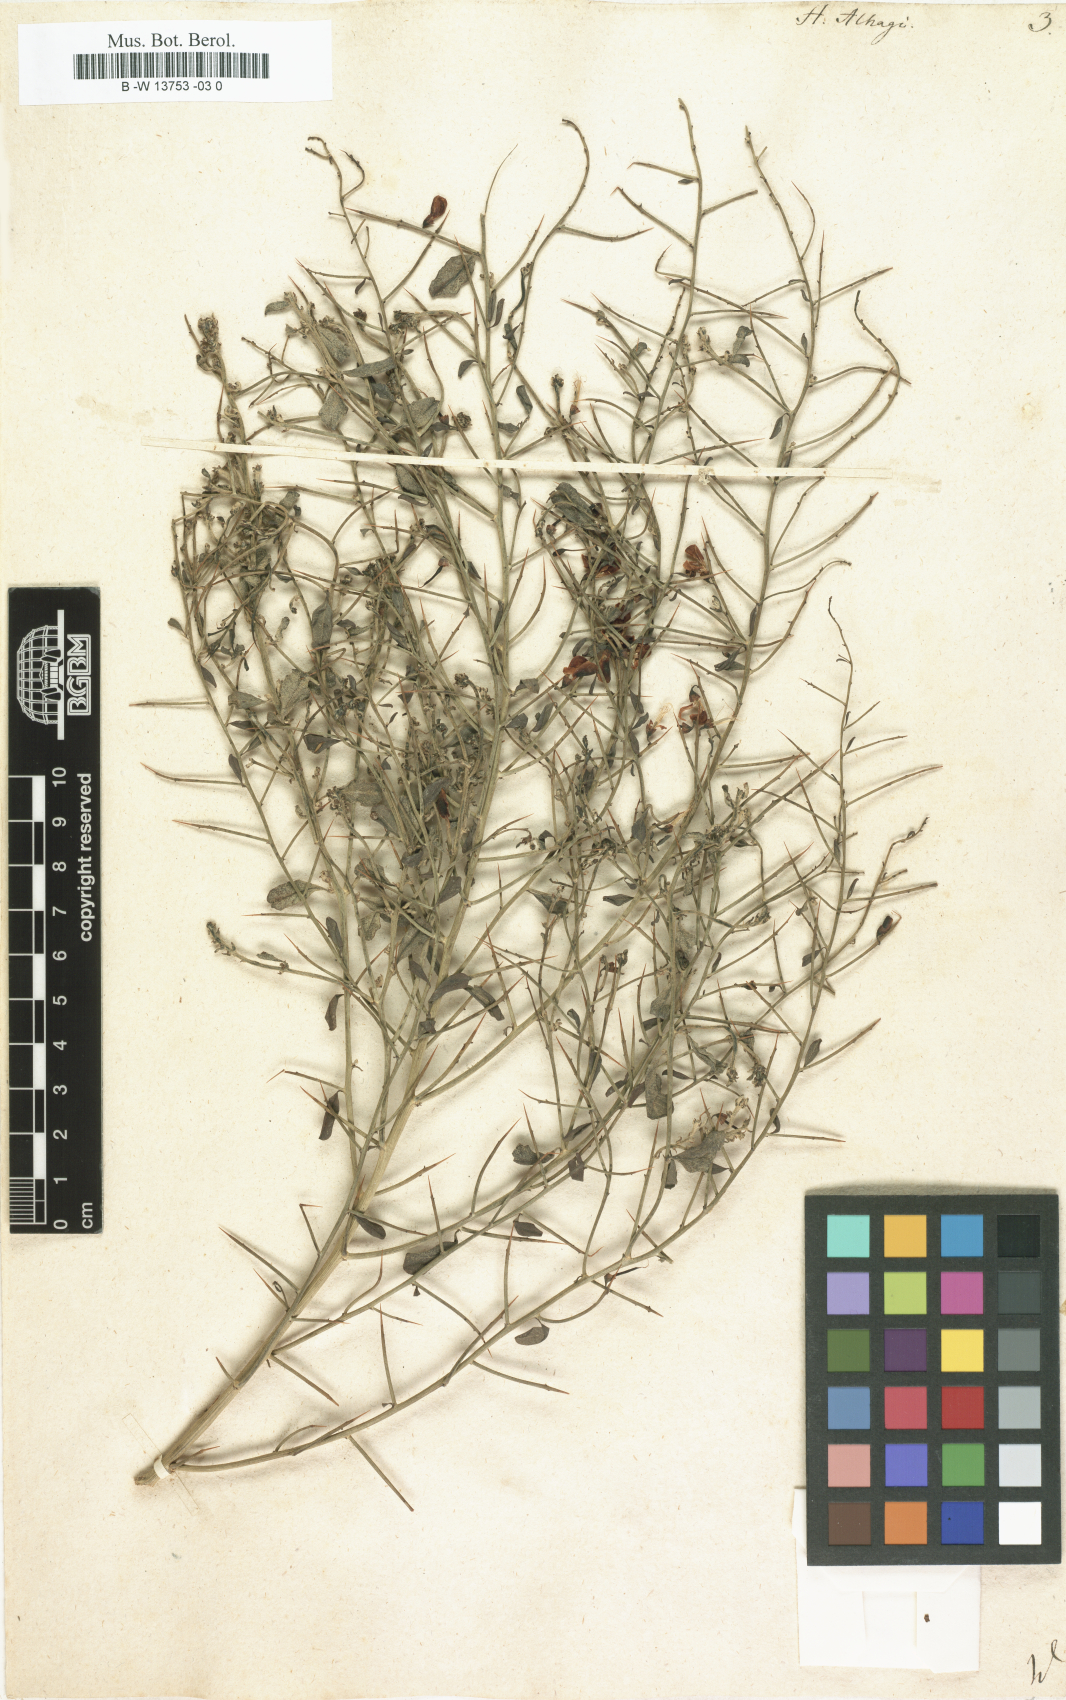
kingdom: Plantae
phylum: Tracheophyta
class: Magnoliopsida
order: Fabales
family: Fabaceae
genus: Alhagi
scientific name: Alhagi maurorum
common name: Camelthorn
